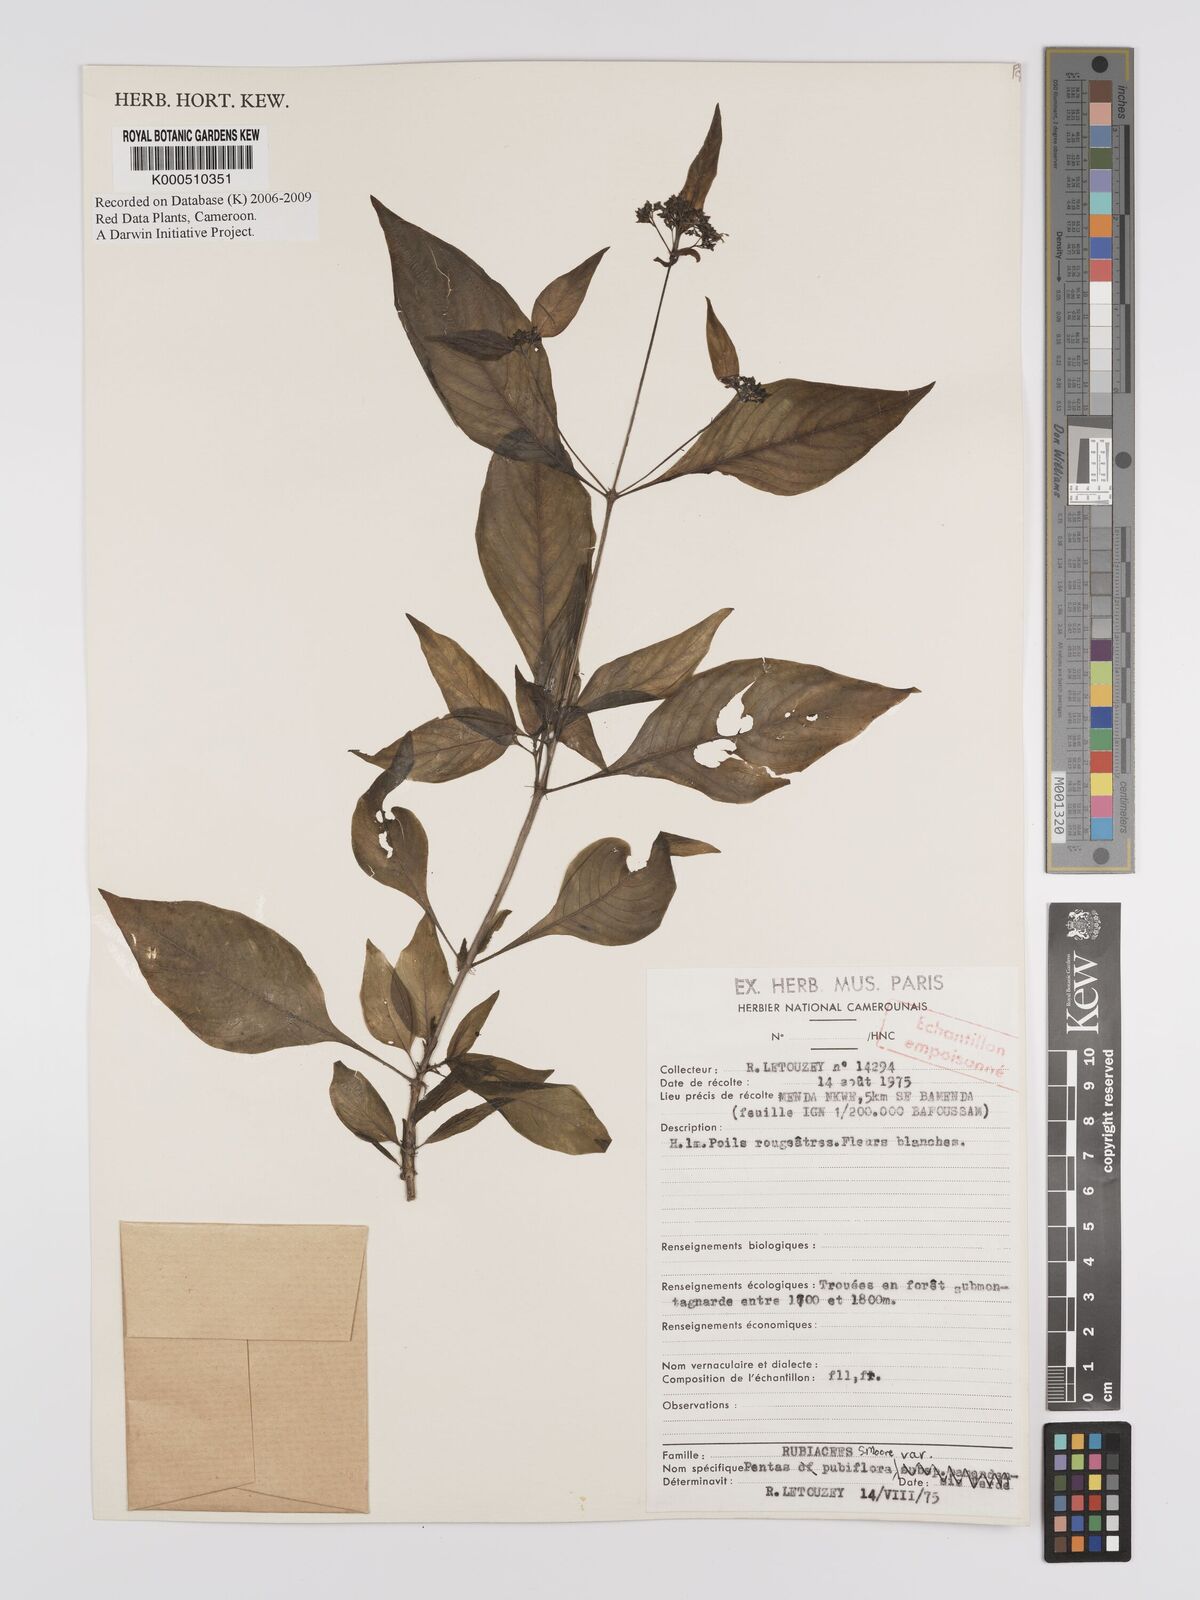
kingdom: Plantae
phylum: Tracheophyta
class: Magnoliopsida
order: Gentianales
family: Rubiaceae
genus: Pentas
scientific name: Pentas pubiflora
